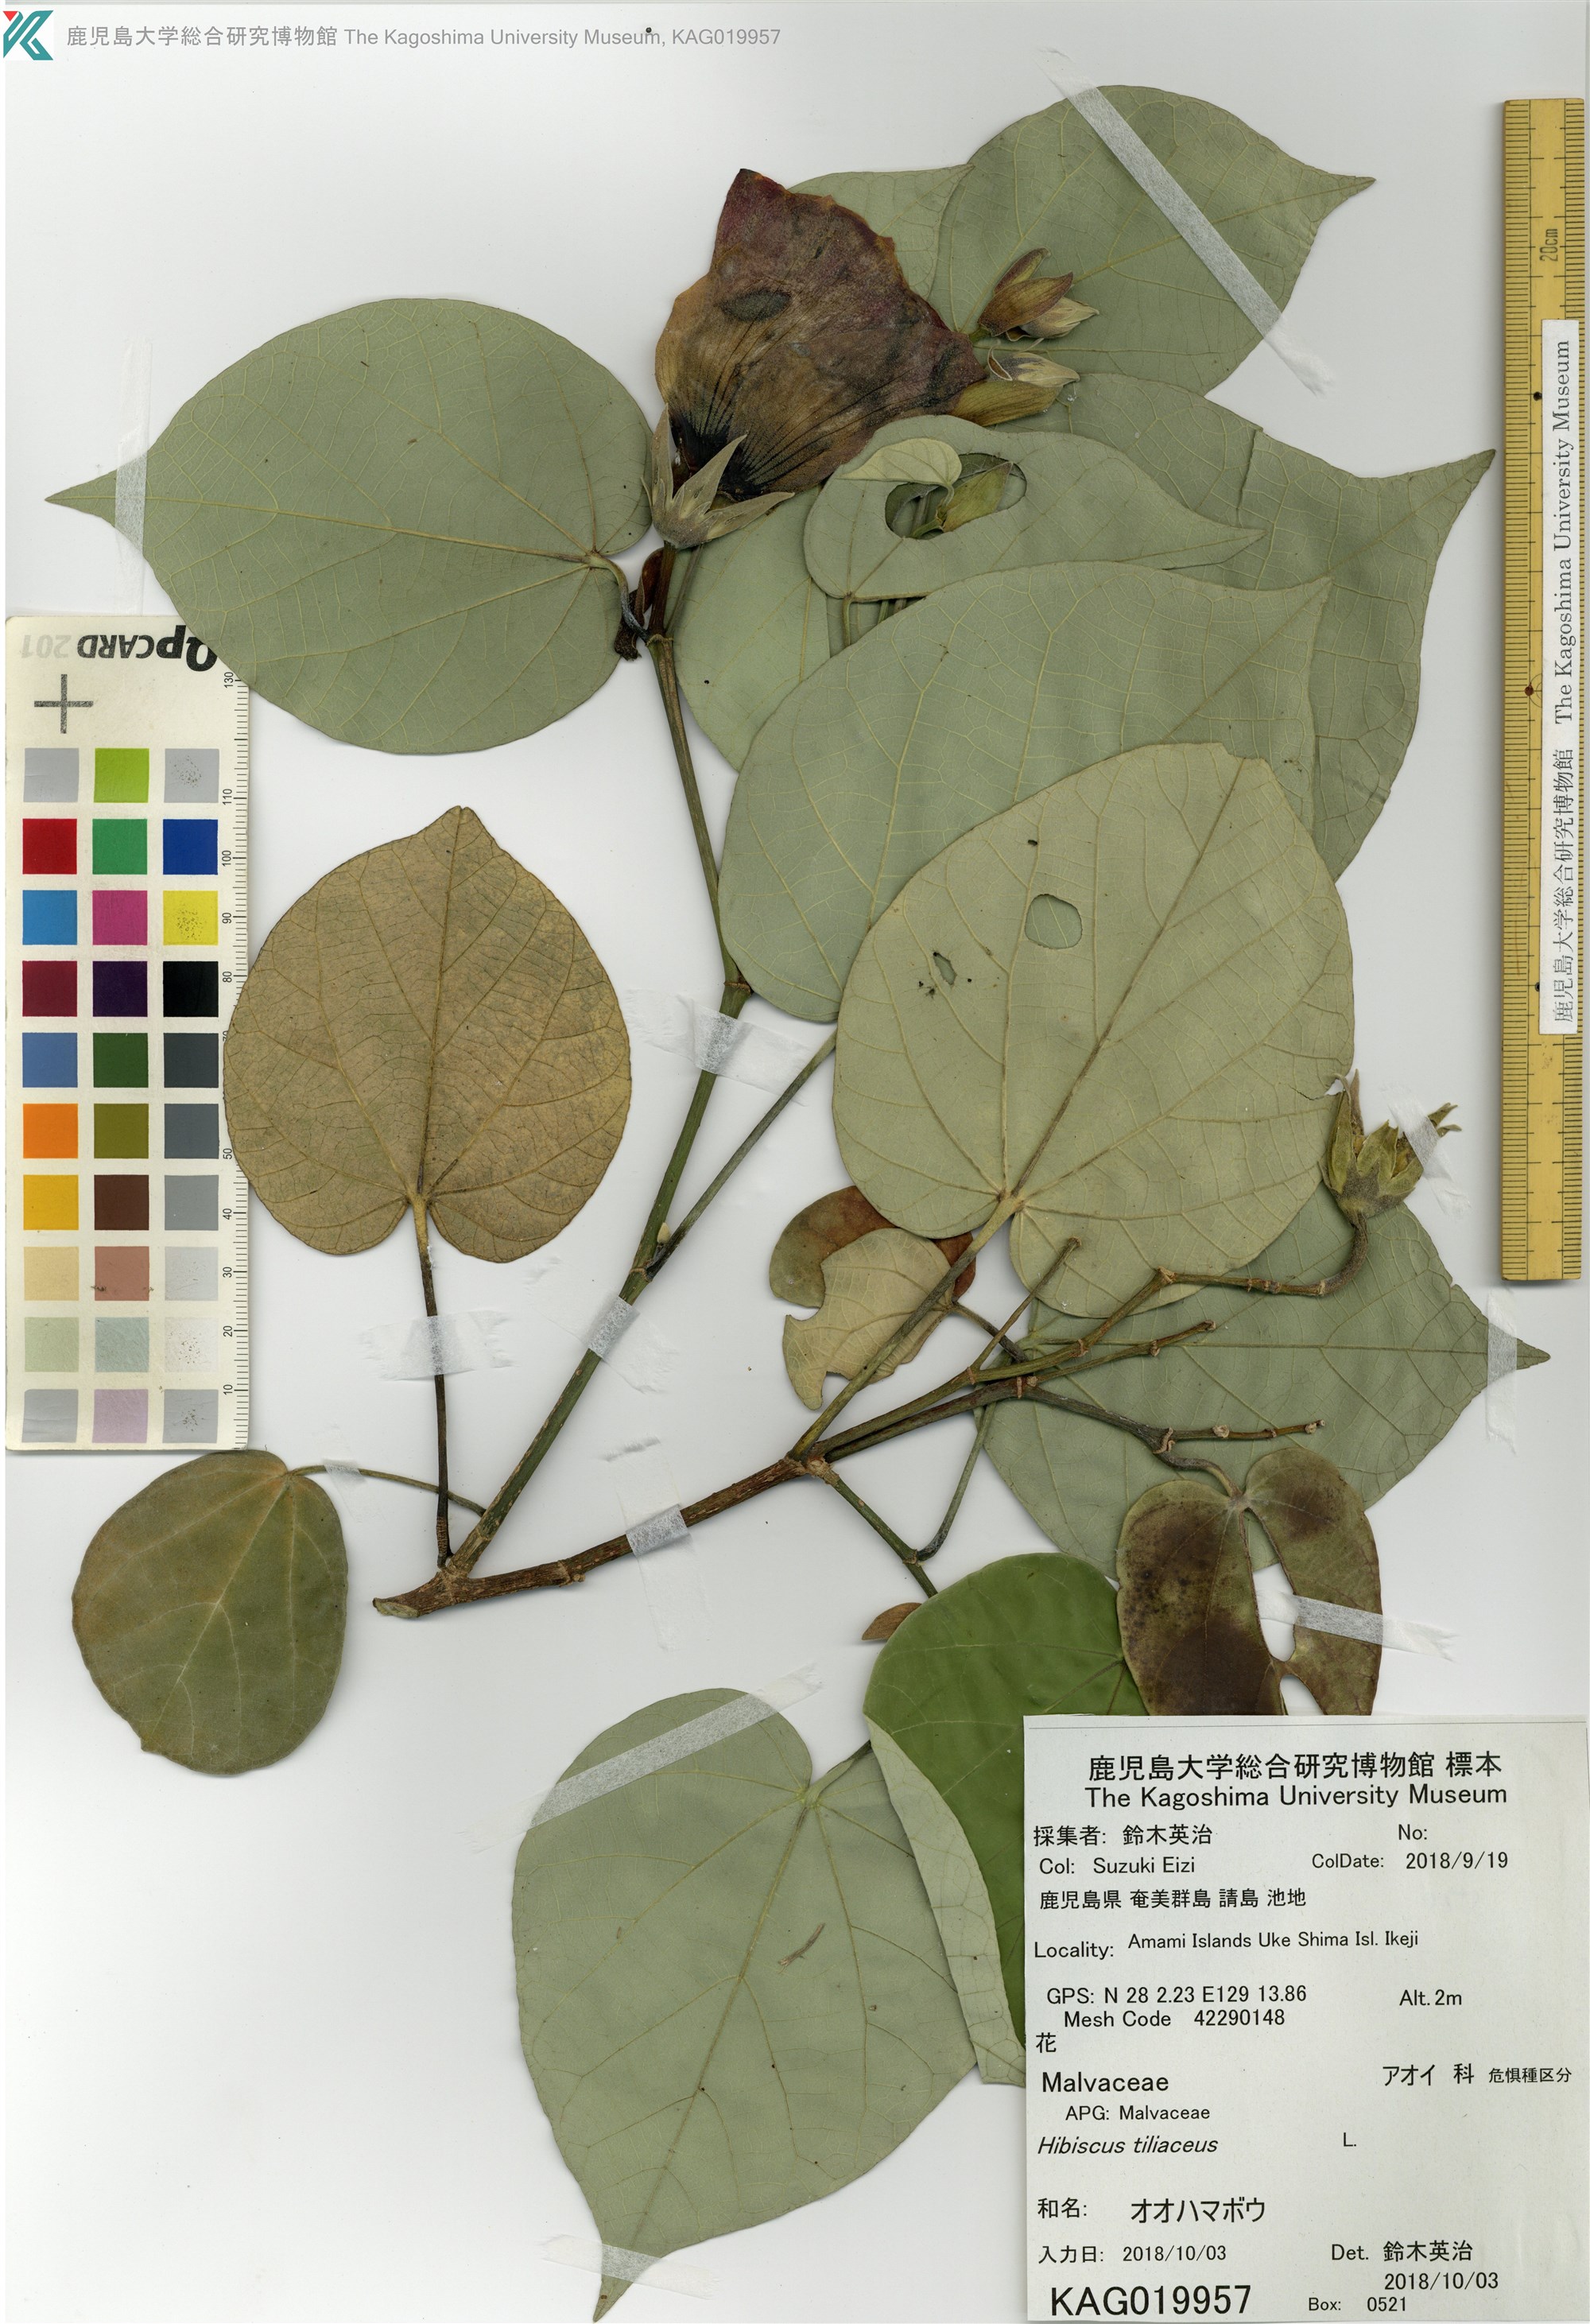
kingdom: Plantae
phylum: Tracheophyta
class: Magnoliopsida
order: Malvales
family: Malvaceae
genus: Talipariti
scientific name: Talipariti tiliaceum
